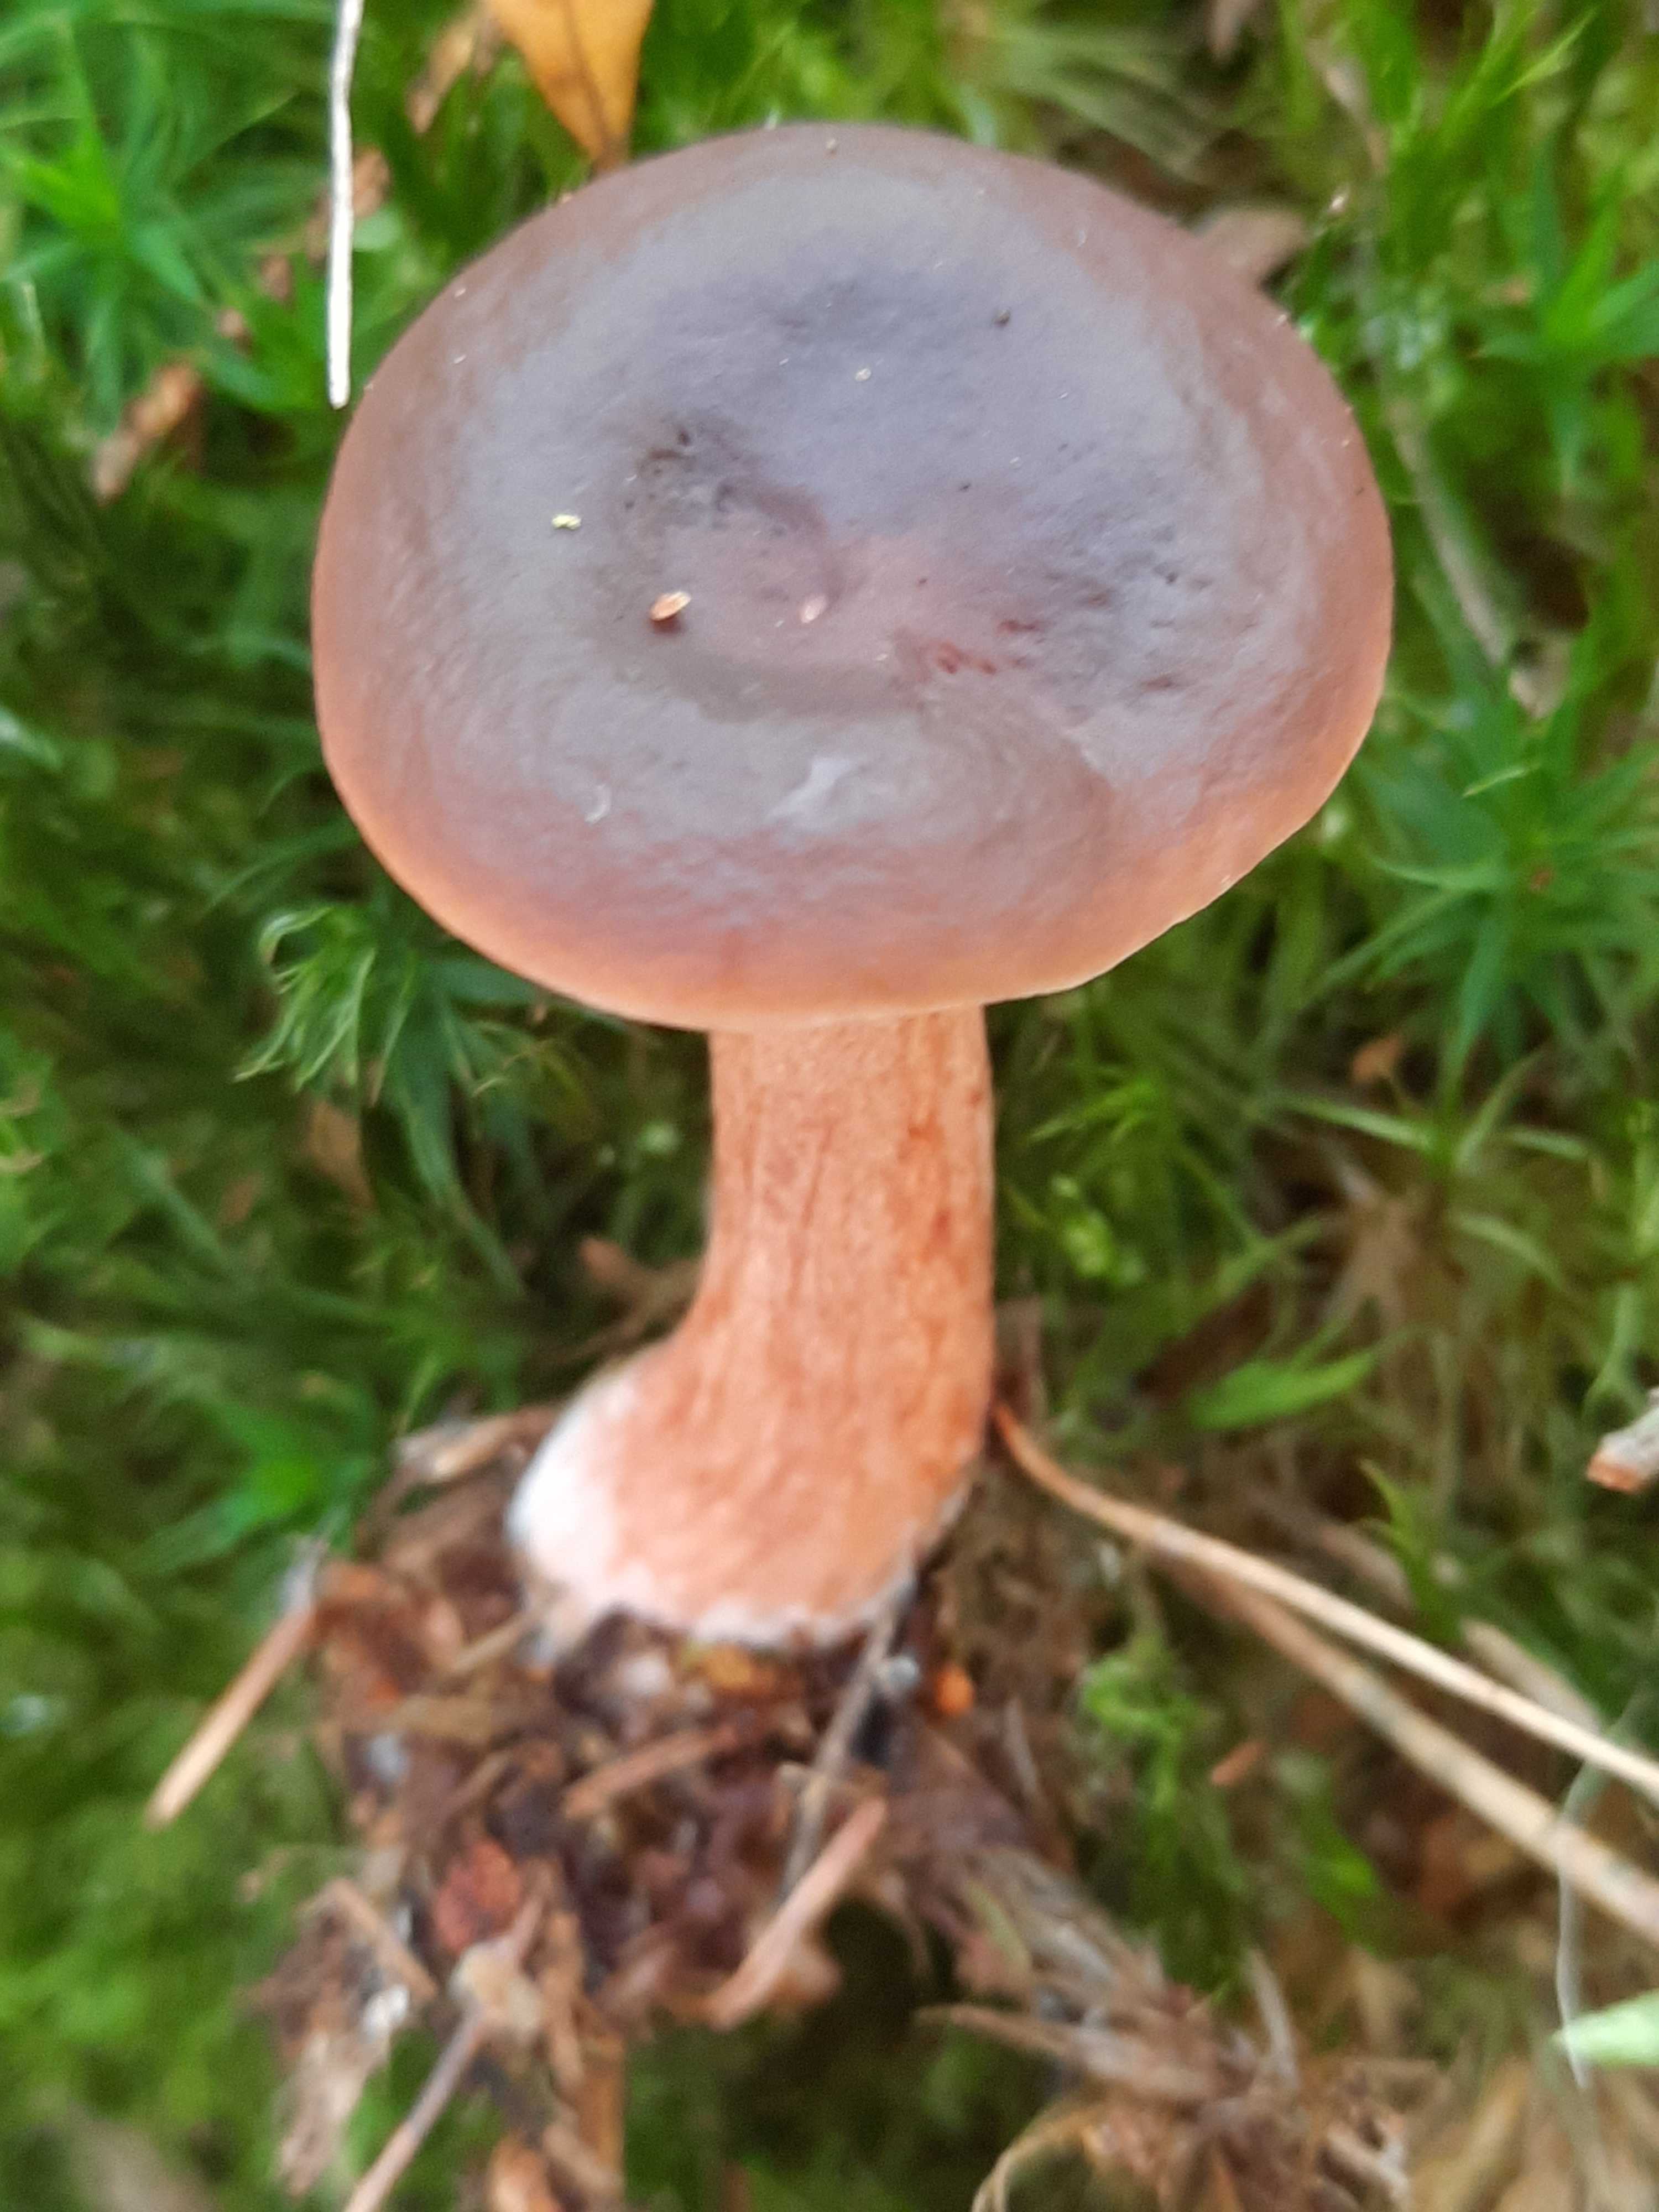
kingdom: Fungi
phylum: Basidiomycota
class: Agaricomycetes
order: Russulales
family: Russulaceae
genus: Lactarius
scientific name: Lactarius hepaticus
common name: leverbrun mælkehat
